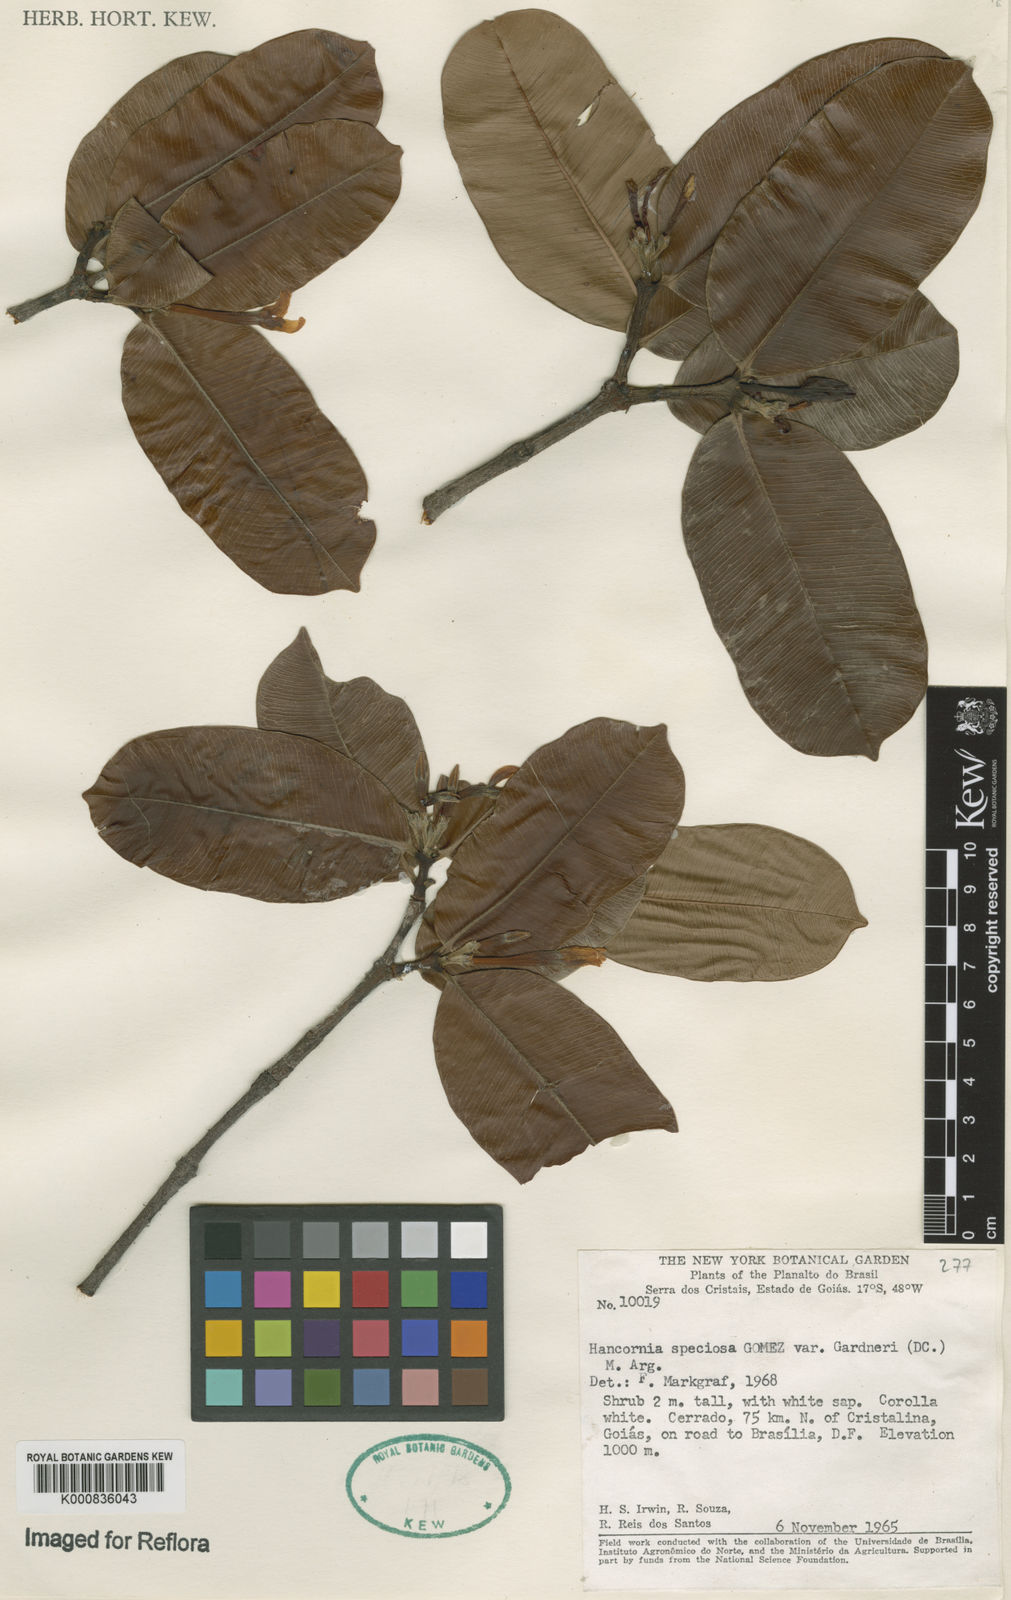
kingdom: Plantae
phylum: Tracheophyta
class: Magnoliopsida
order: Gentianales
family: Apocynaceae
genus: Hancornia
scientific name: Hancornia speciosa
